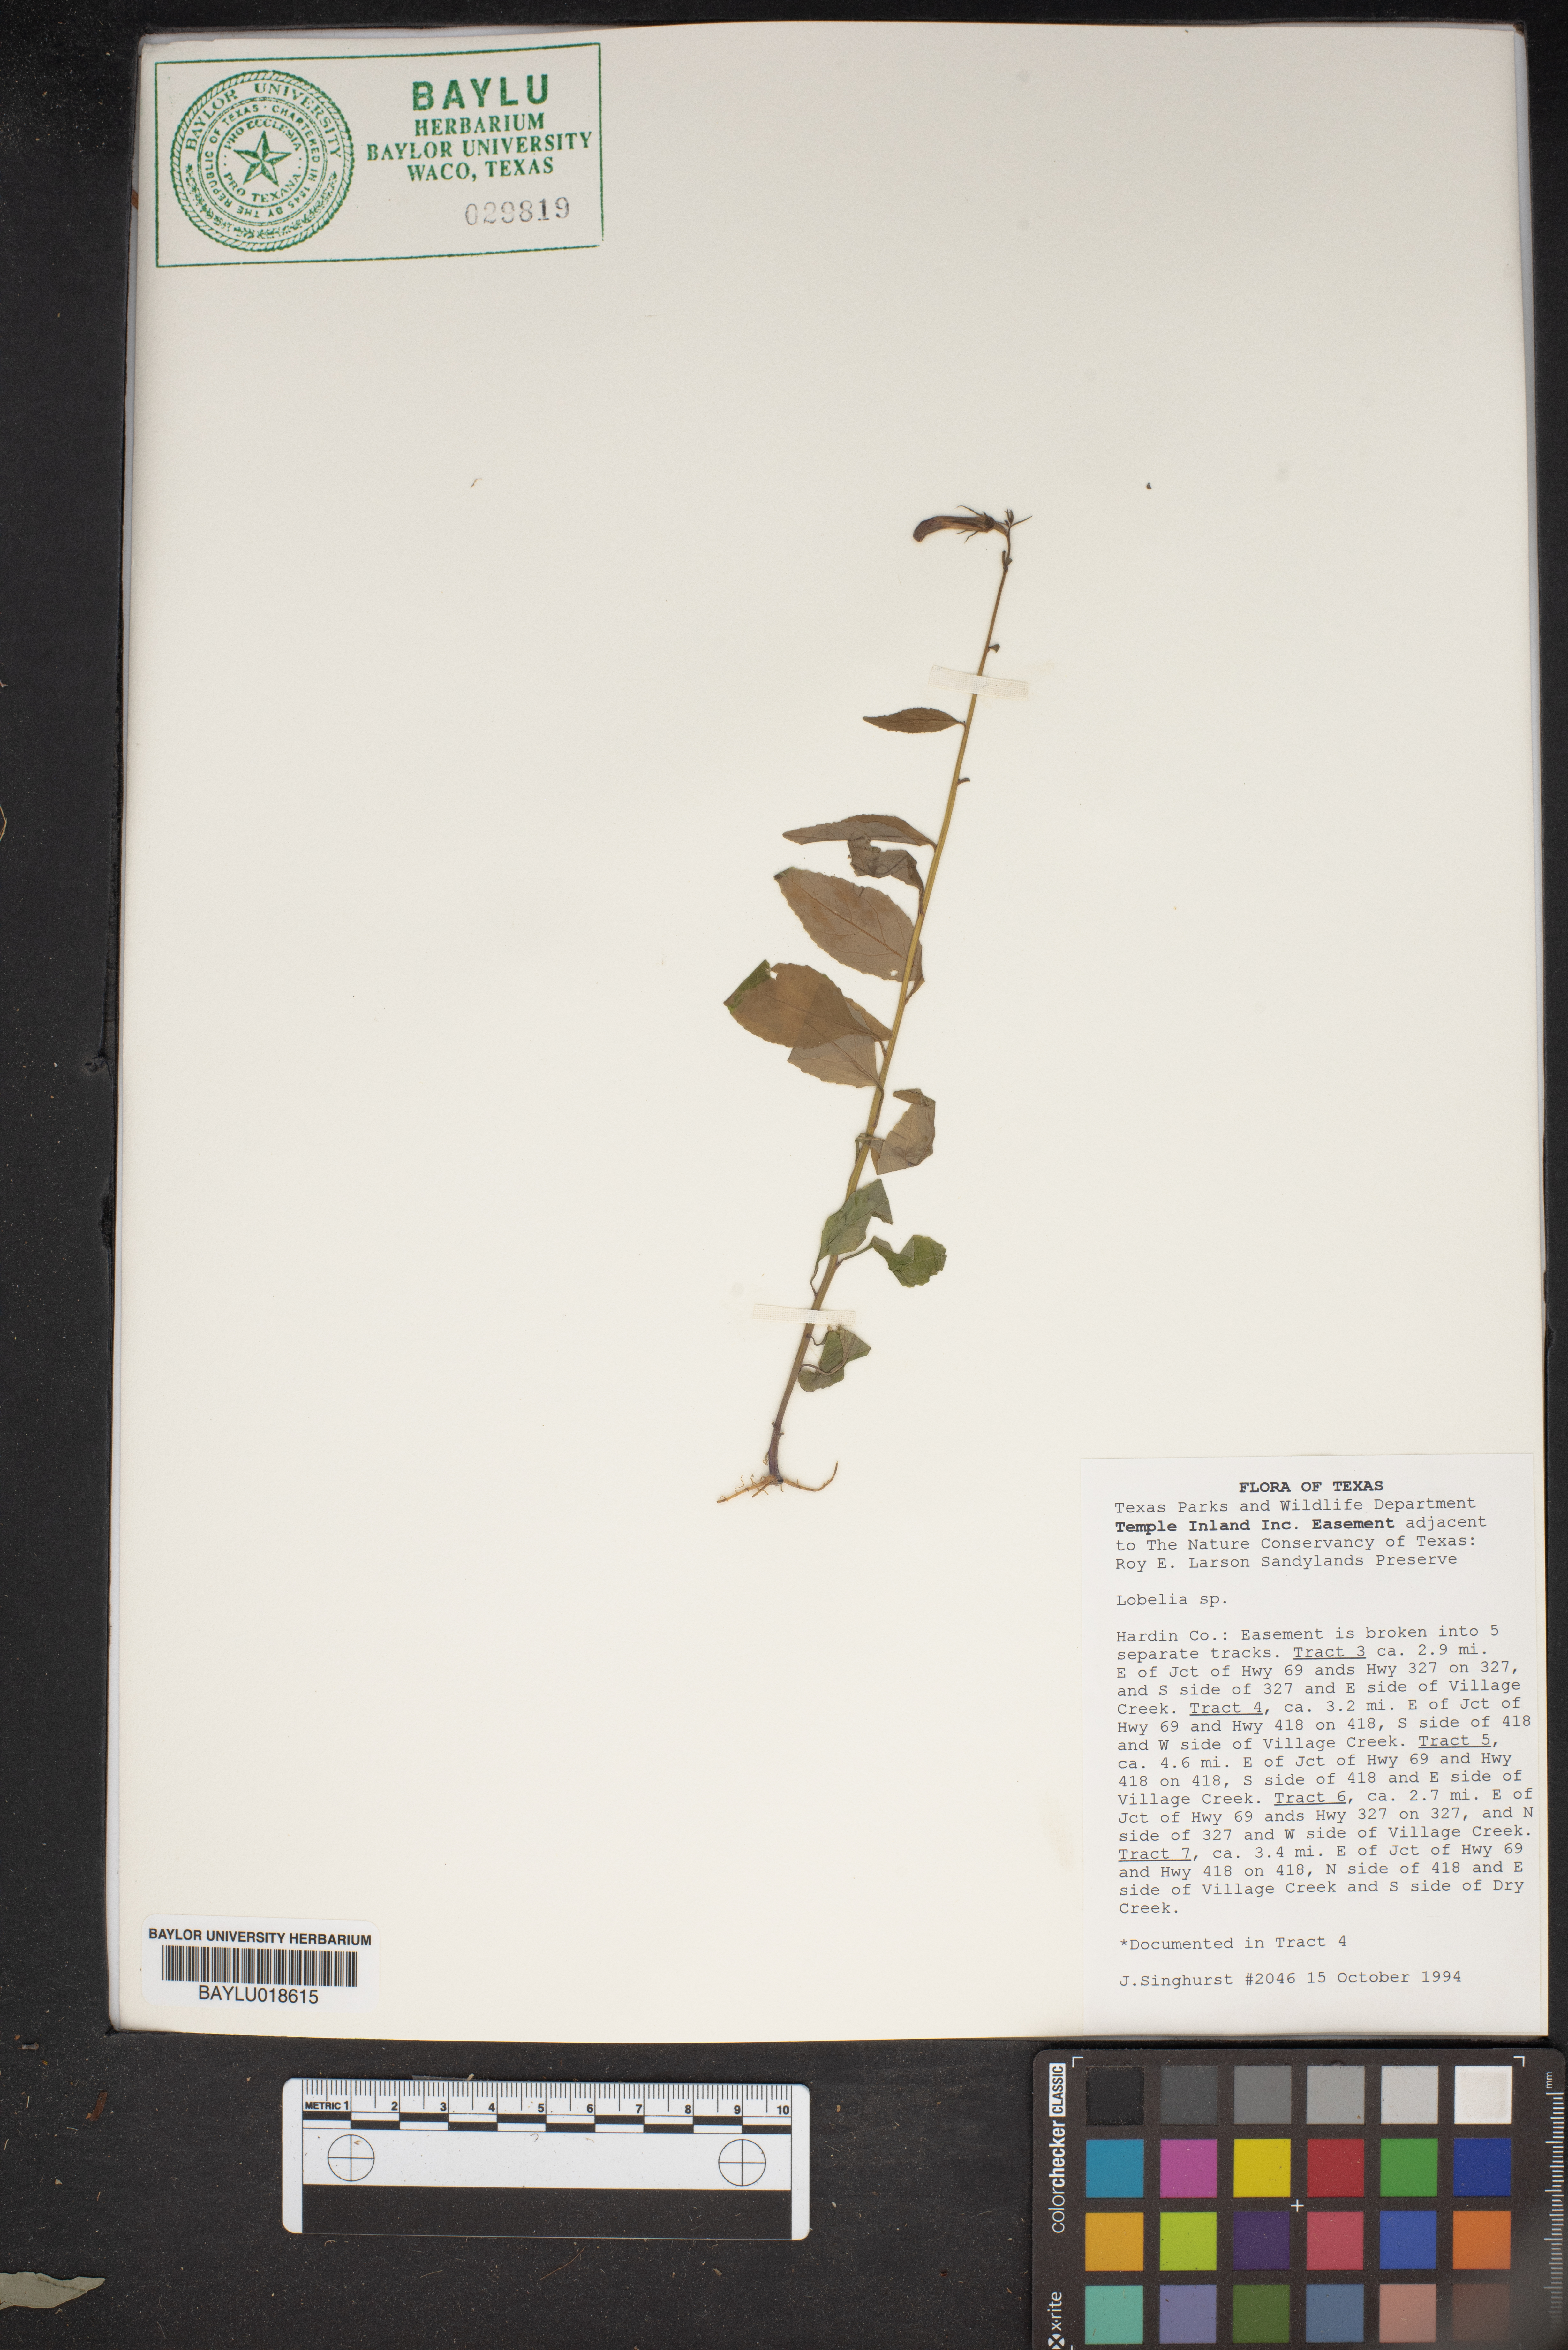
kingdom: Plantae
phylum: Tracheophyta
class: Magnoliopsida
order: Asterales
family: Campanulaceae
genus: Lobelia
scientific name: Lobelia
